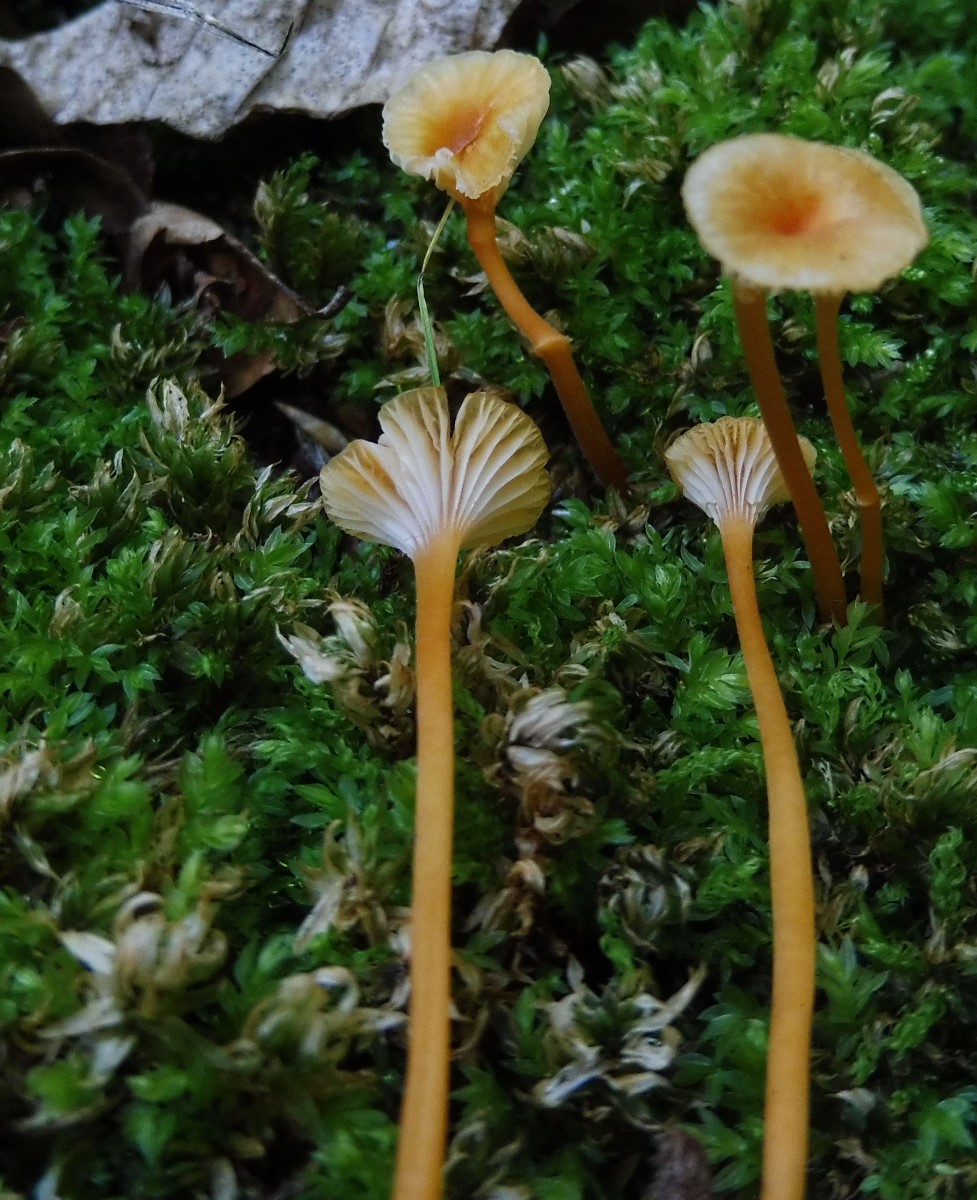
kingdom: Fungi
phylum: Basidiomycota
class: Agaricomycetes
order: Hymenochaetales
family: Rickenellaceae
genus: Rickenella
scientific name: Rickenella fibula
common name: orange mosnavlehat
